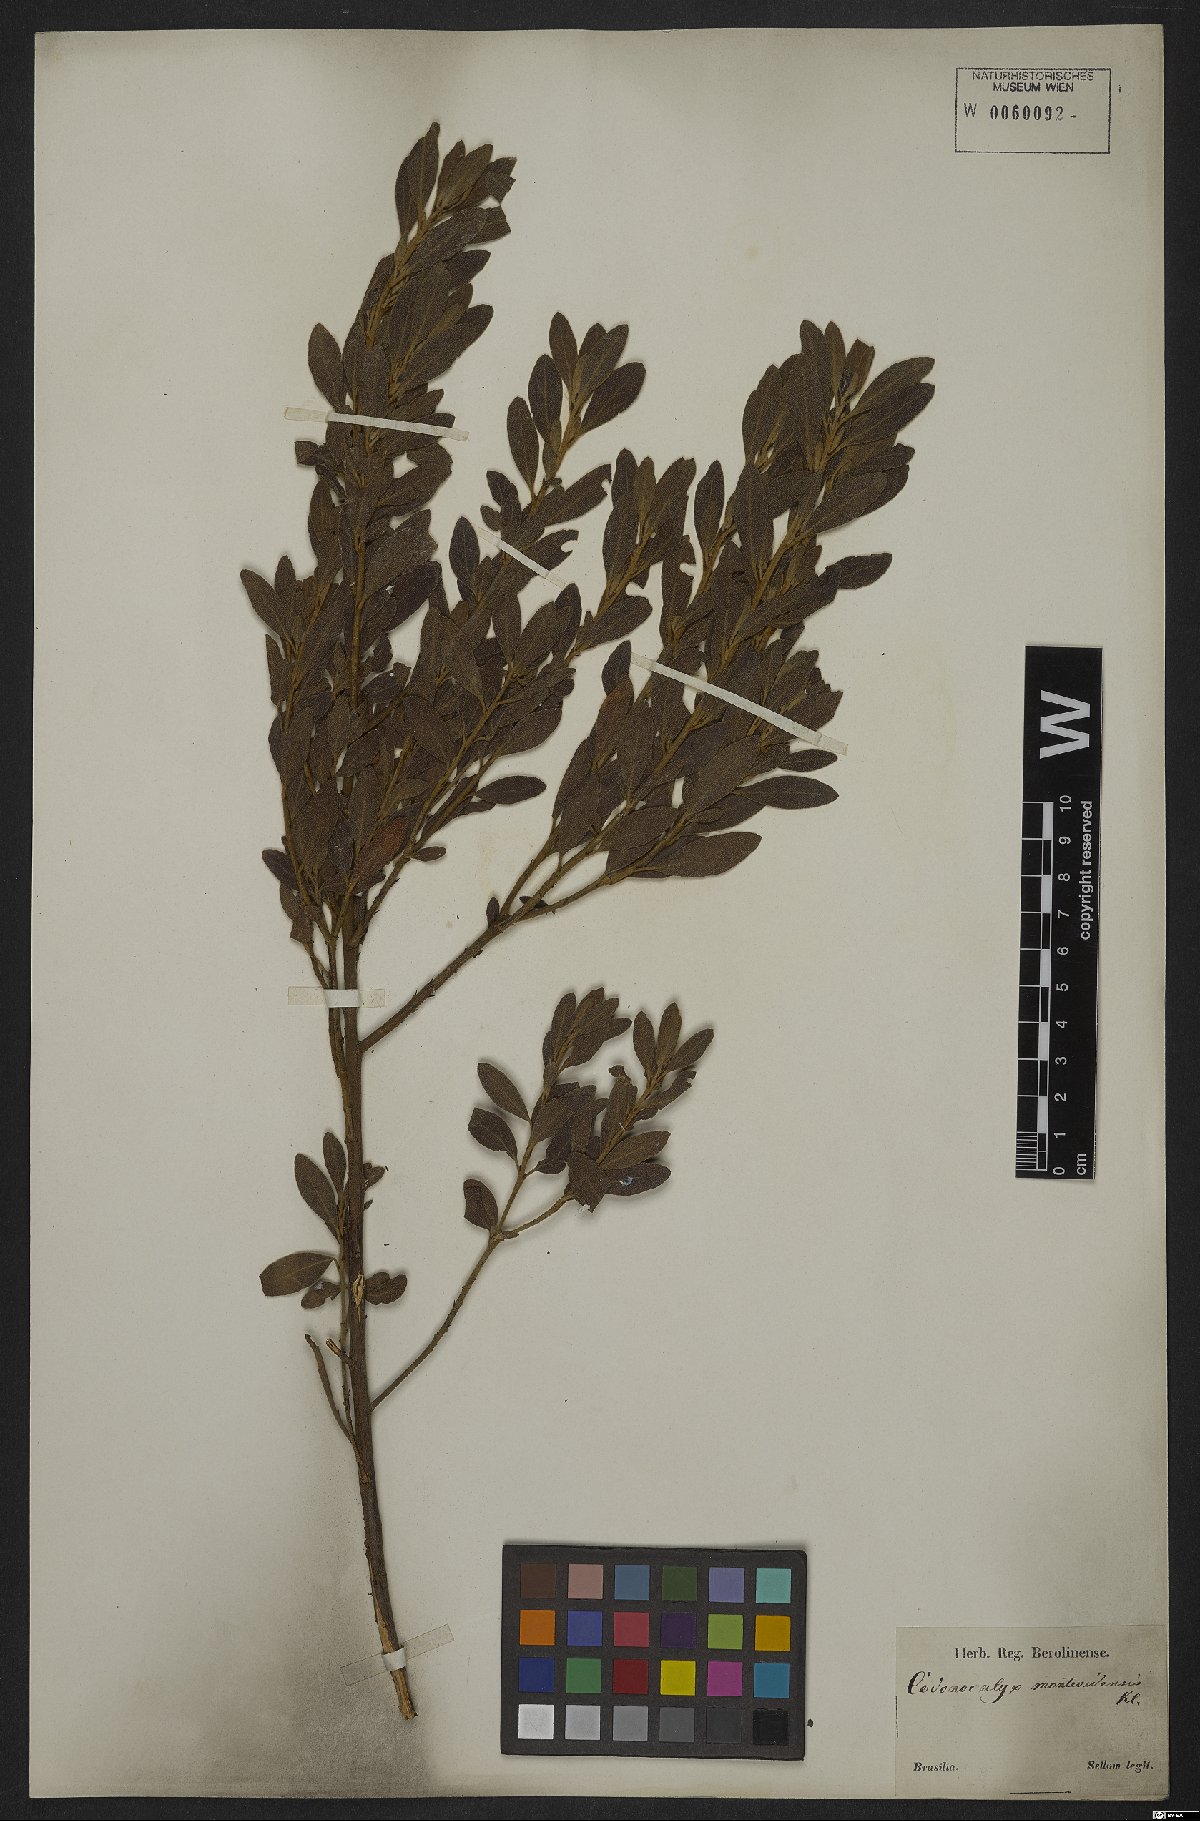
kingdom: Plantae
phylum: Tracheophyta
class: Magnoliopsida
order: Malpighiales
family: Euphorbiaceae
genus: Croton
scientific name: Croton montevidensis
